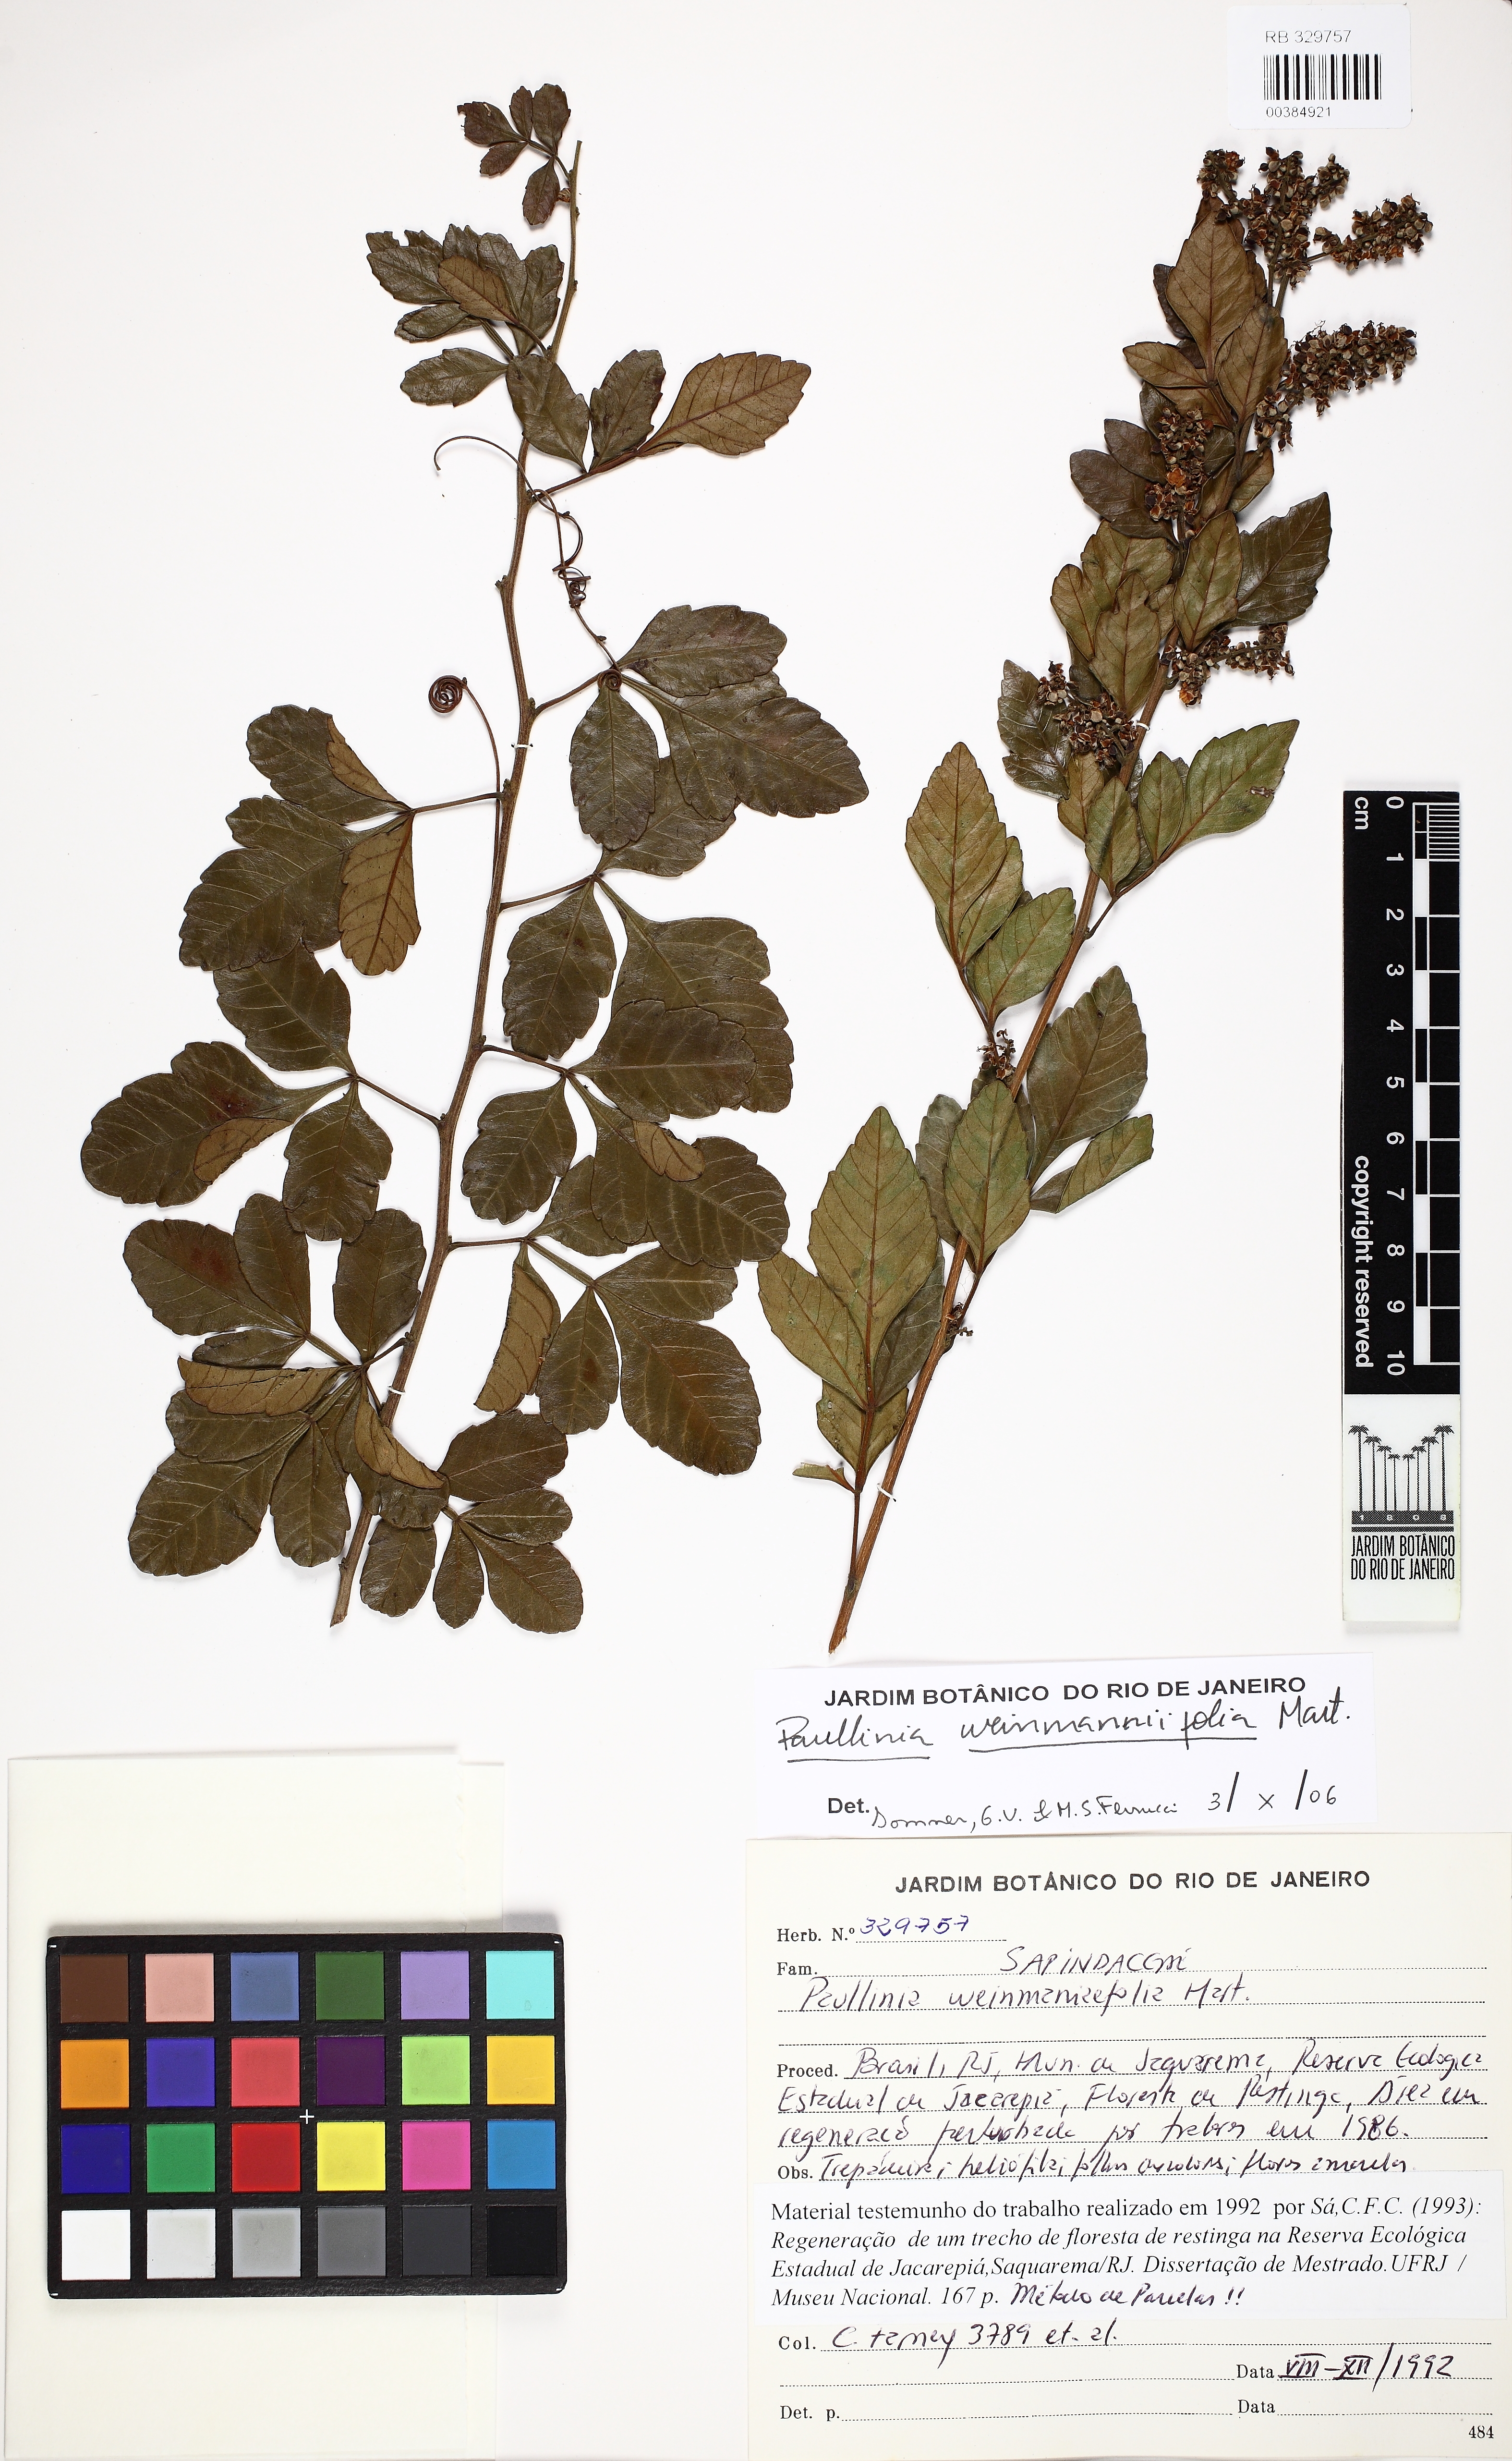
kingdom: Plantae
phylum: Tracheophyta
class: Magnoliopsida
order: Sapindales
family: Sapindaceae
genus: Paullinia
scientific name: Paullinia weinmanniifolia
